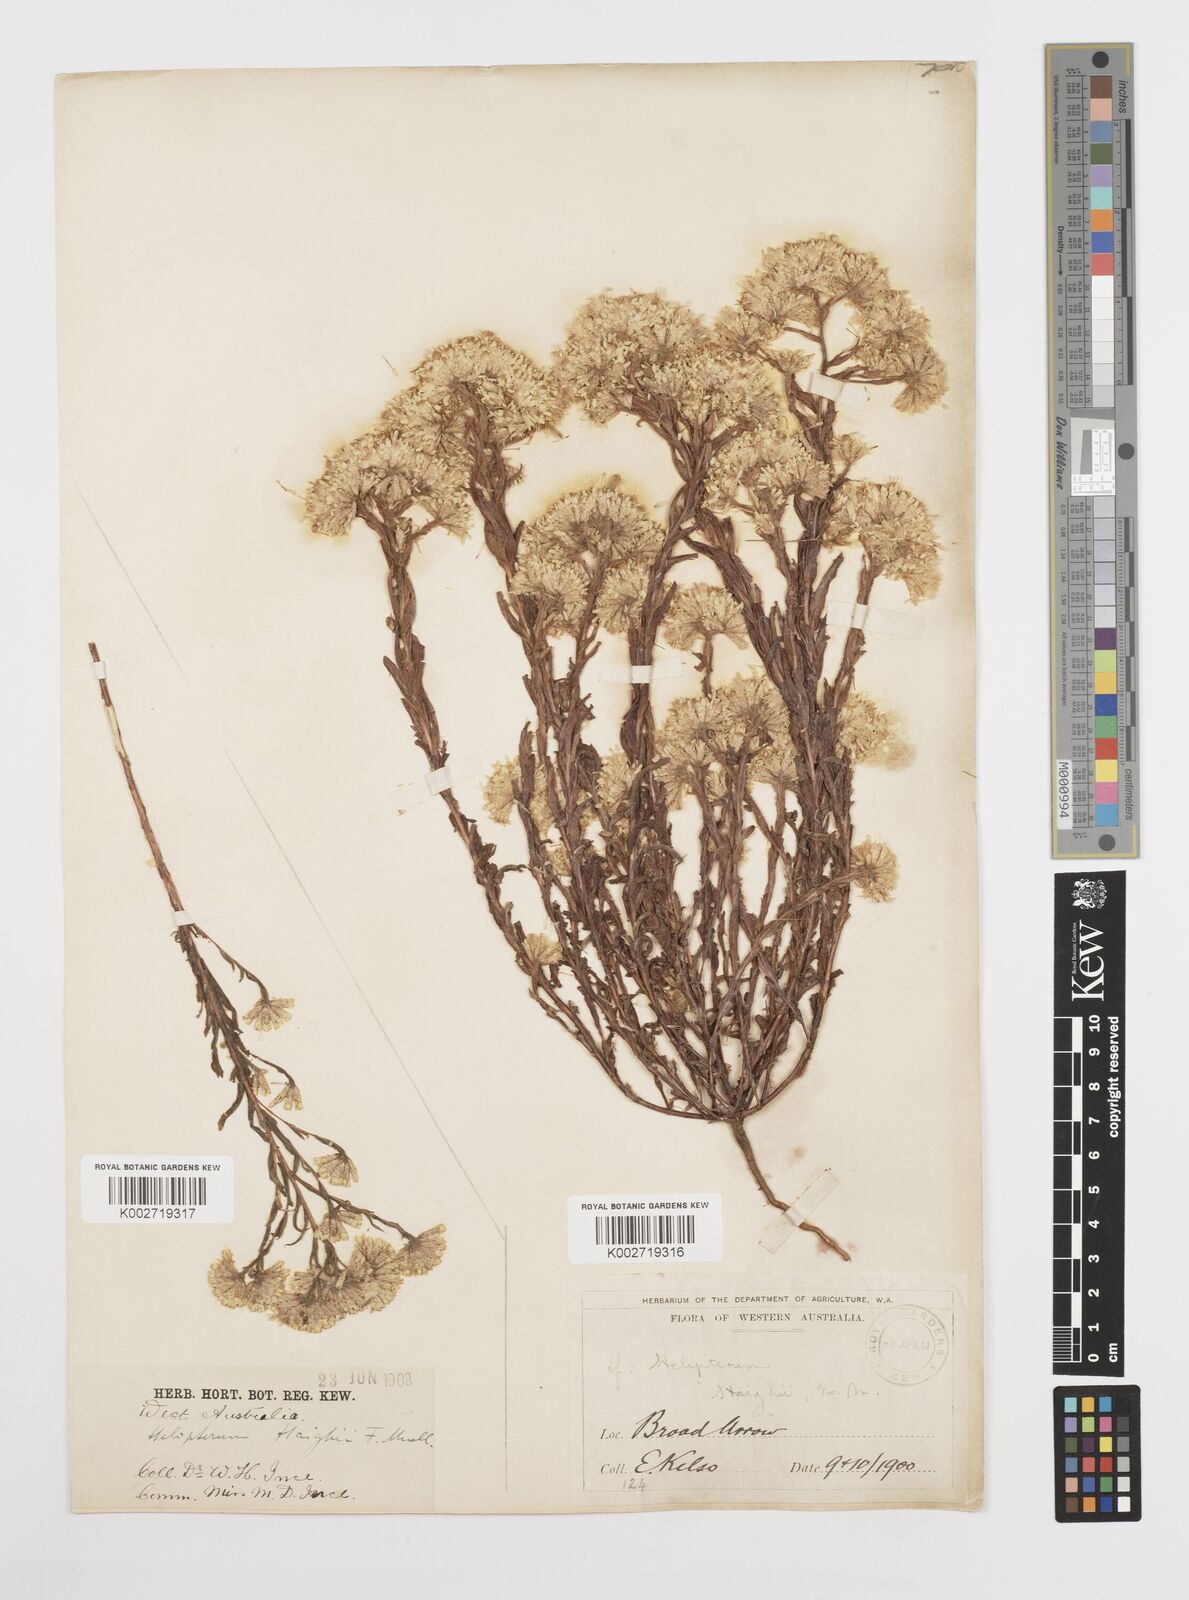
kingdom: Plantae
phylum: Tracheophyta
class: Magnoliopsida
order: Asterales
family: Asteraceae
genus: Rhodanthe
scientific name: Rhodanthe haigii
